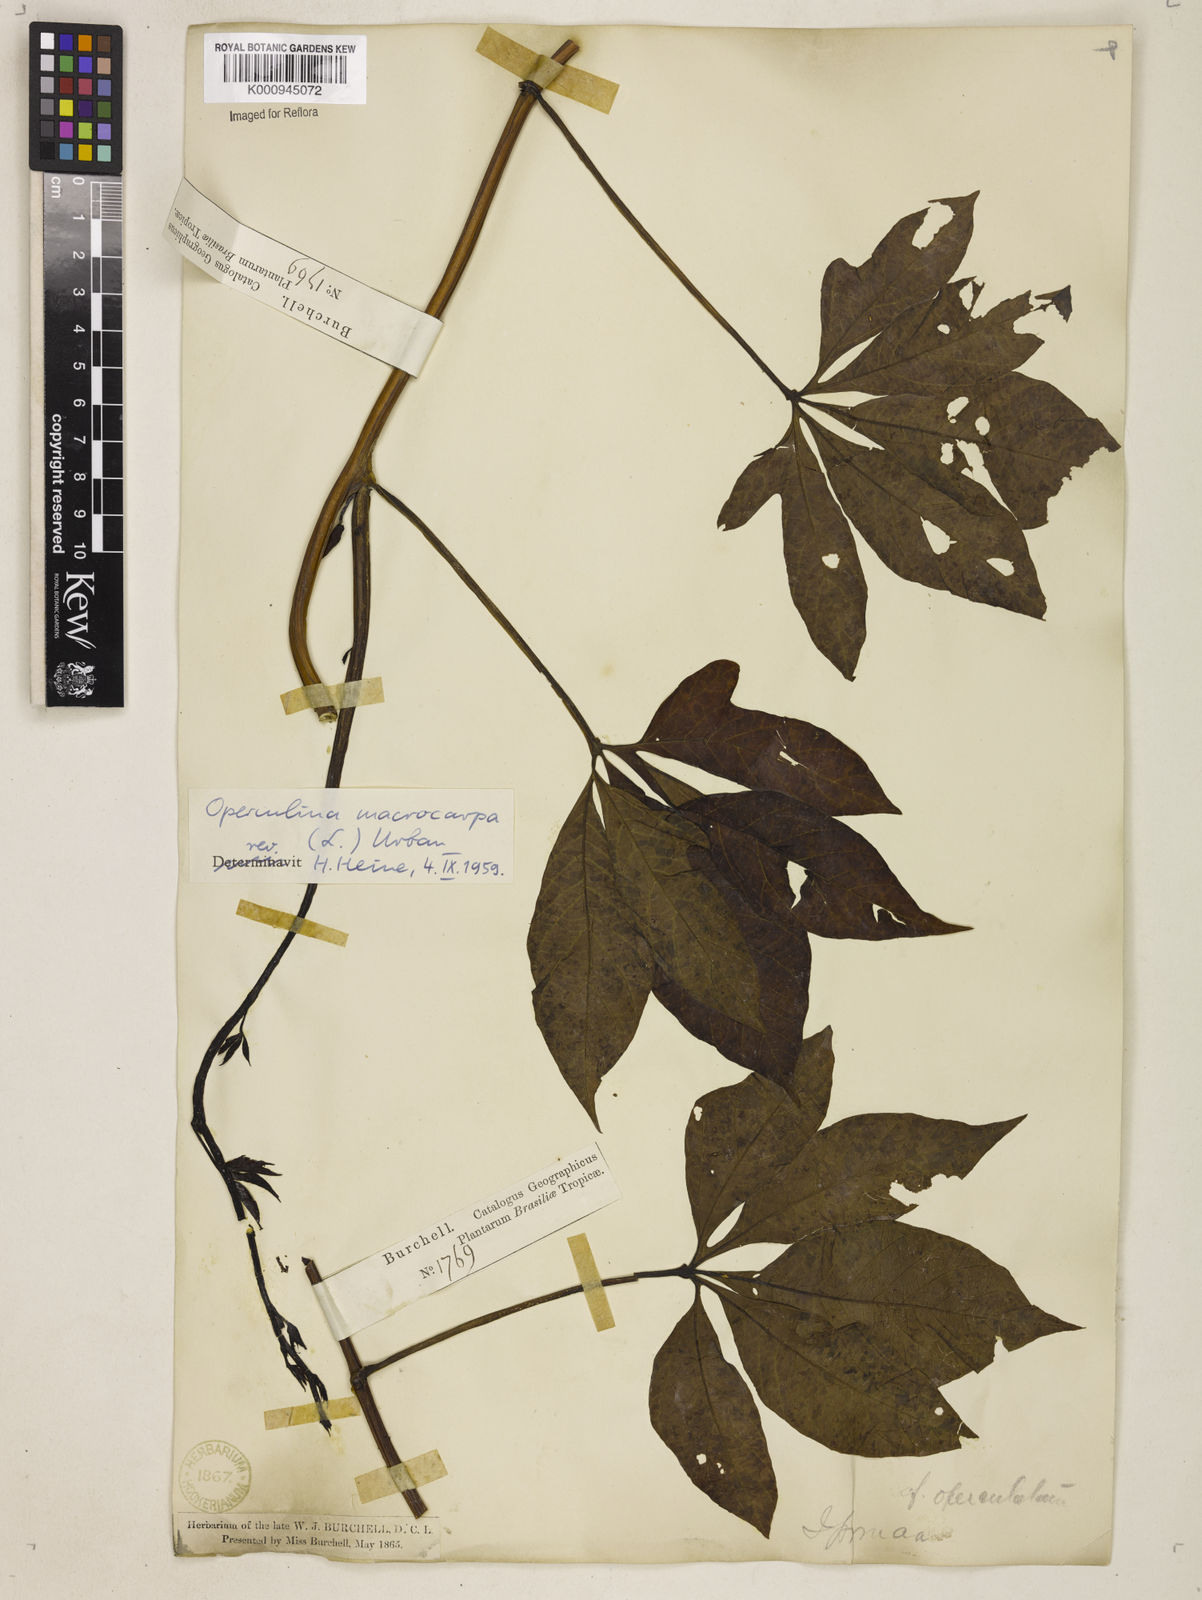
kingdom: Plantae
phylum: Tracheophyta
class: Magnoliopsida
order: Solanales
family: Convolvulaceae
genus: Operculina
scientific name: Operculina macrocarpa
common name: Brazilian jalap
